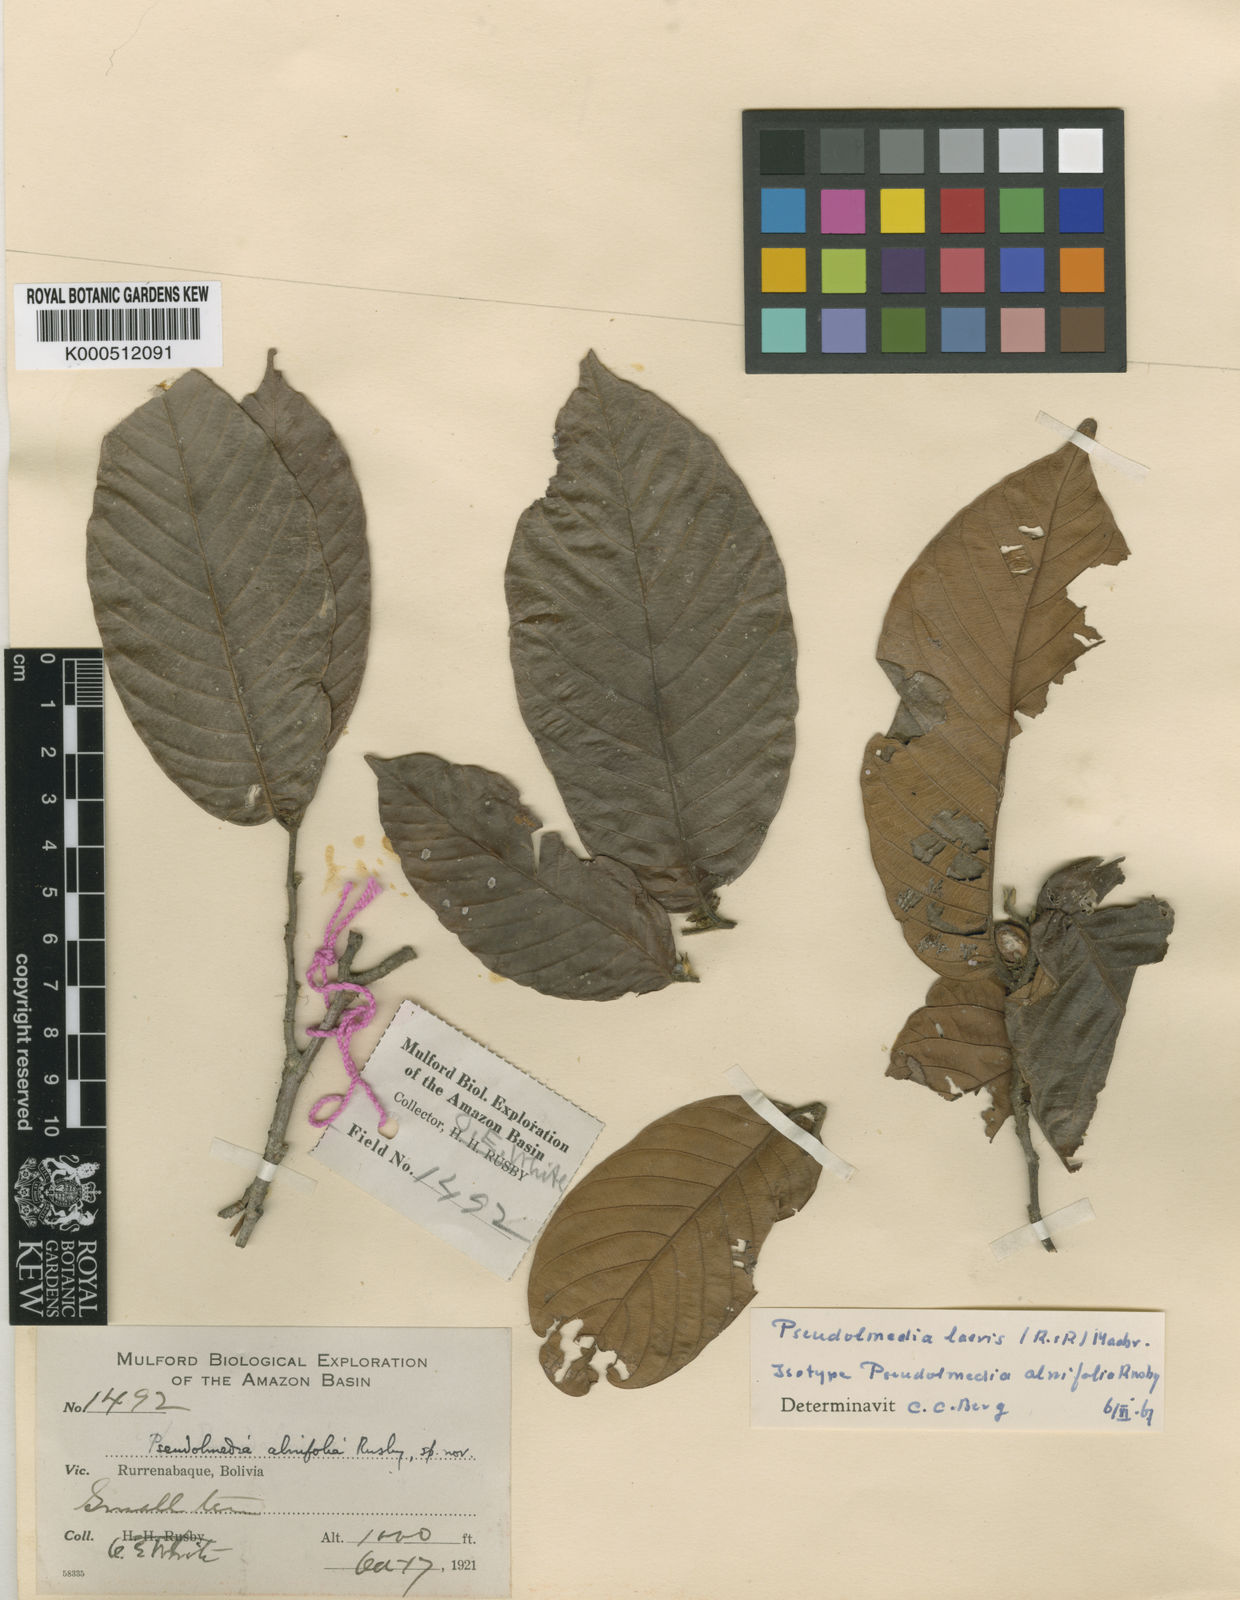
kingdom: Plantae
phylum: Tracheophyta
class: Magnoliopsida
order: Rosales
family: Moraceae
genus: Pseudolmedia
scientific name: Pseudolmedia laevis
